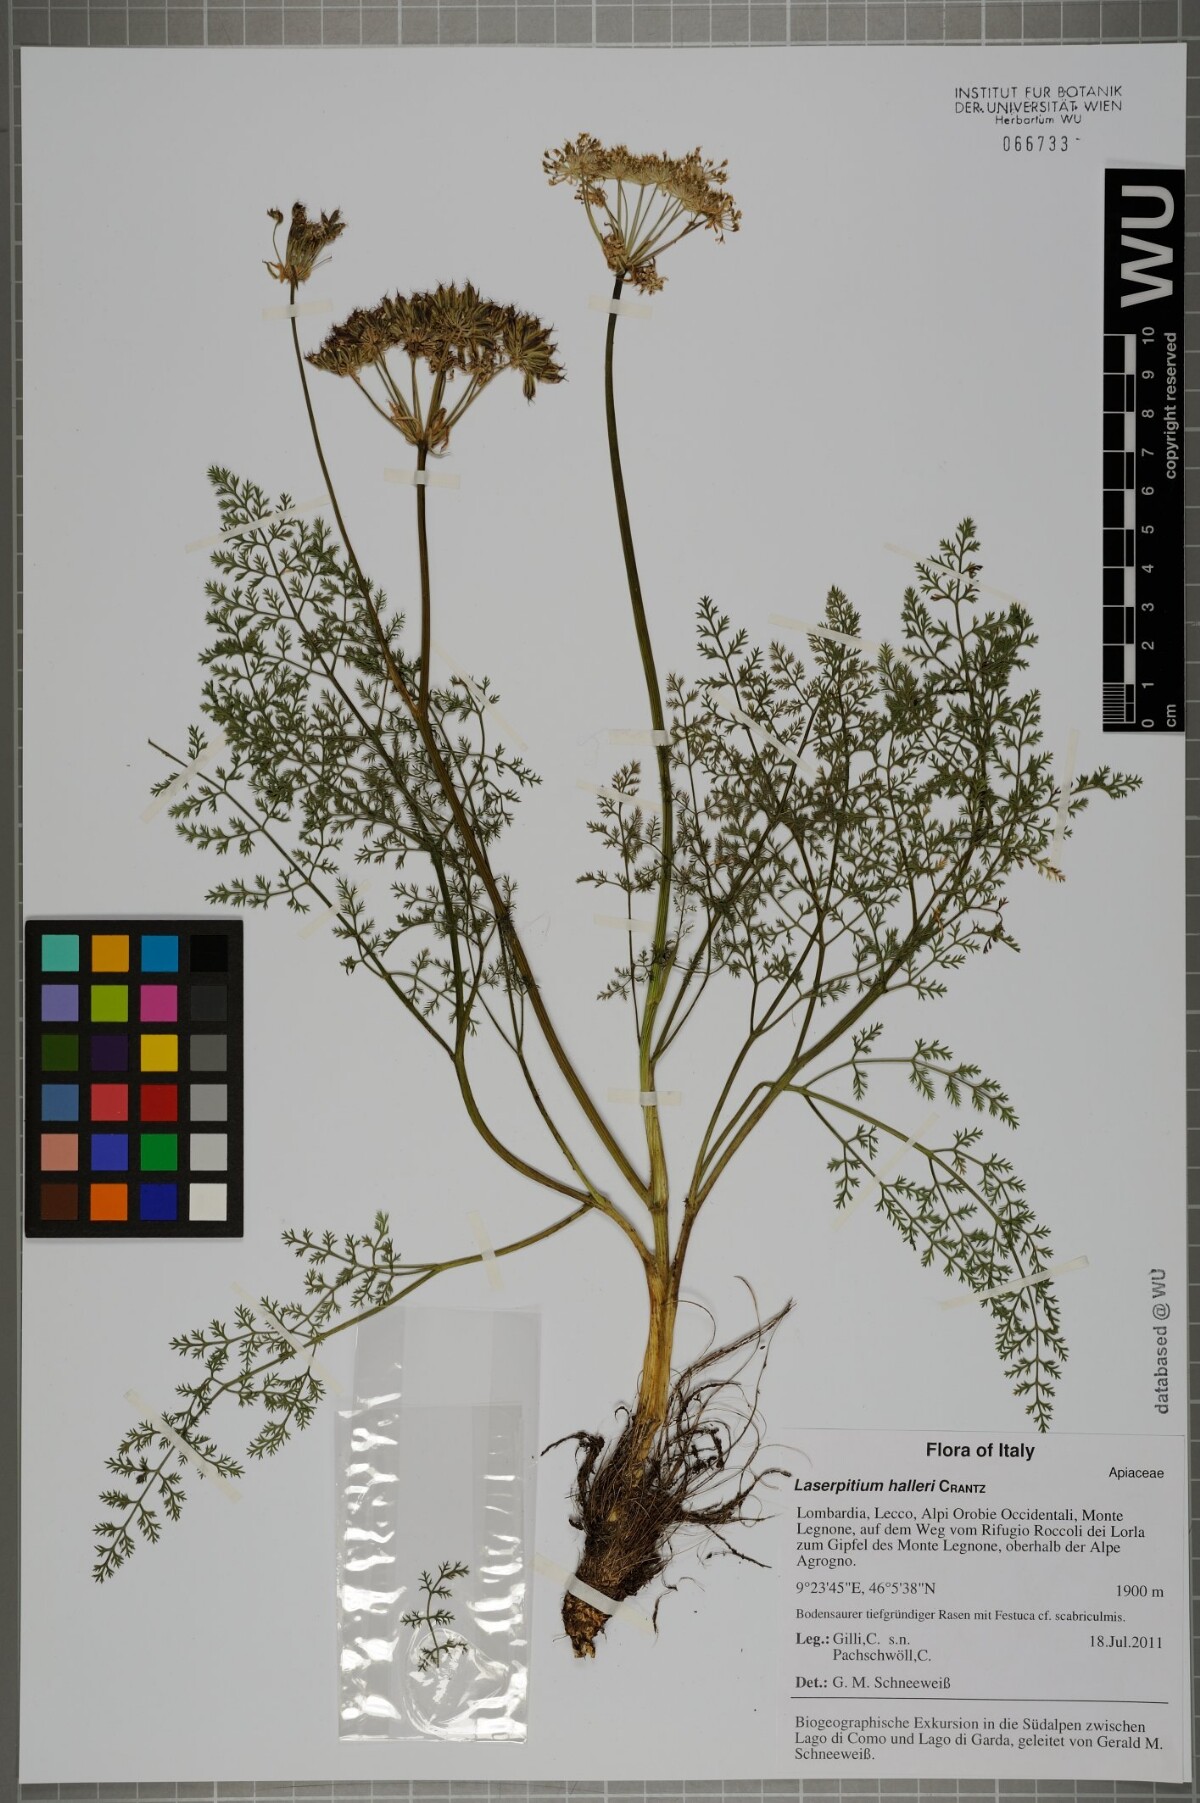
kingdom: Plantae
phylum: Tracheophyta
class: Magnoliopsida
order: Apiales
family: Apiaceae
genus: Laserpitium
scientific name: Laserpitium halleri
